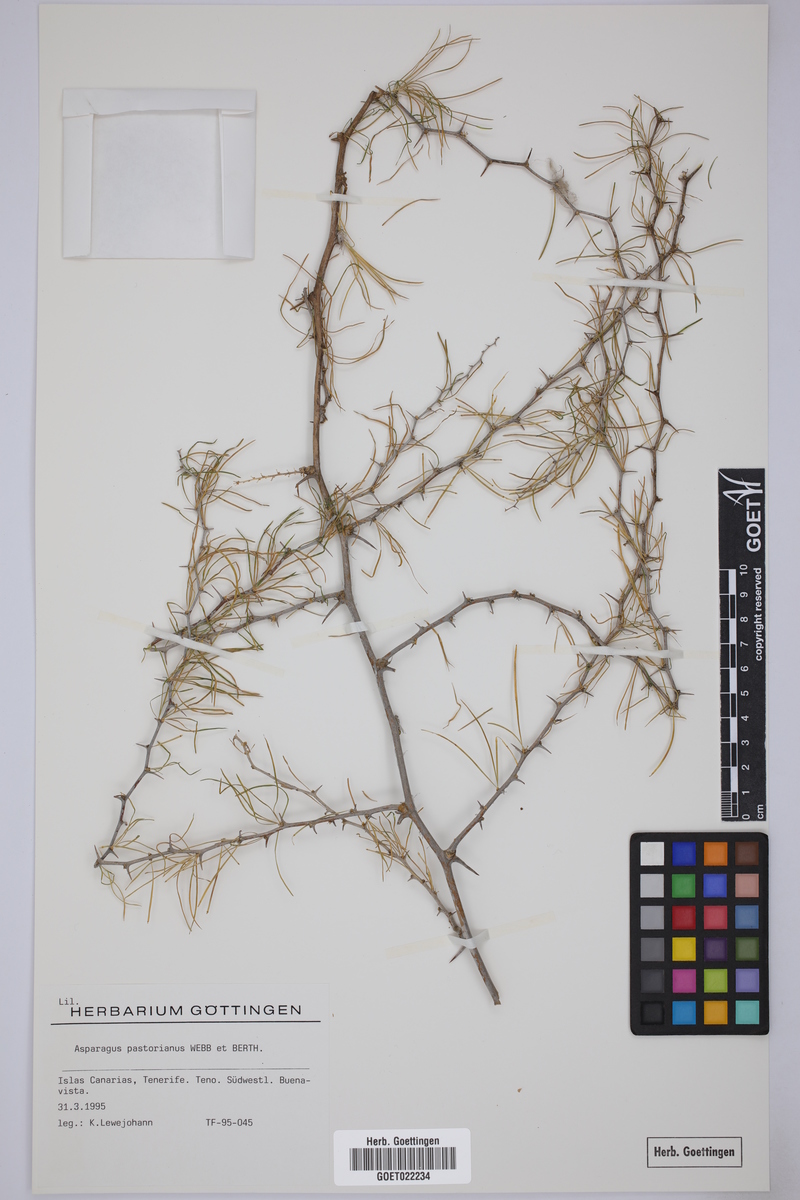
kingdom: Plantae
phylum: Tracheophyta
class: Liliopsida
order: Asparagales
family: Asparagaceae
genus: Asparagus
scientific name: Asparagus pastorianus
